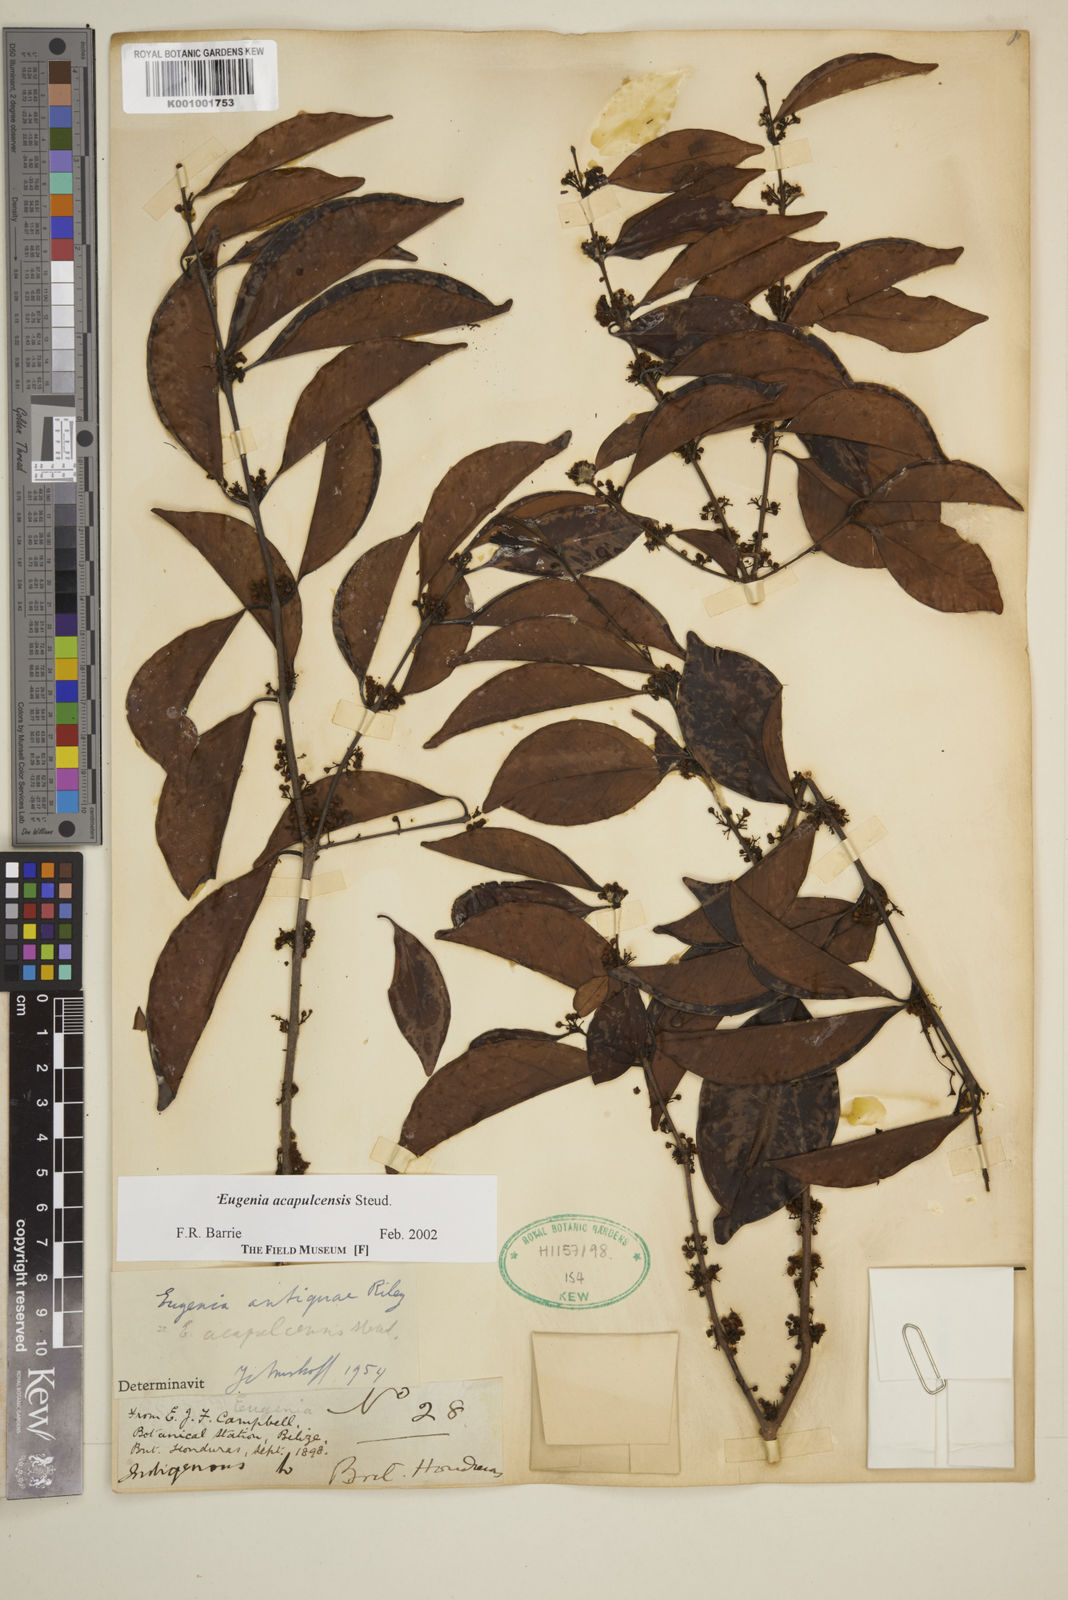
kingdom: Plantae
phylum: Tracheophyta
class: Magnoliopsida
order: Myrtales
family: Myrtaceae
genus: Eugenia
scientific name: Eugenia acapulcensis
